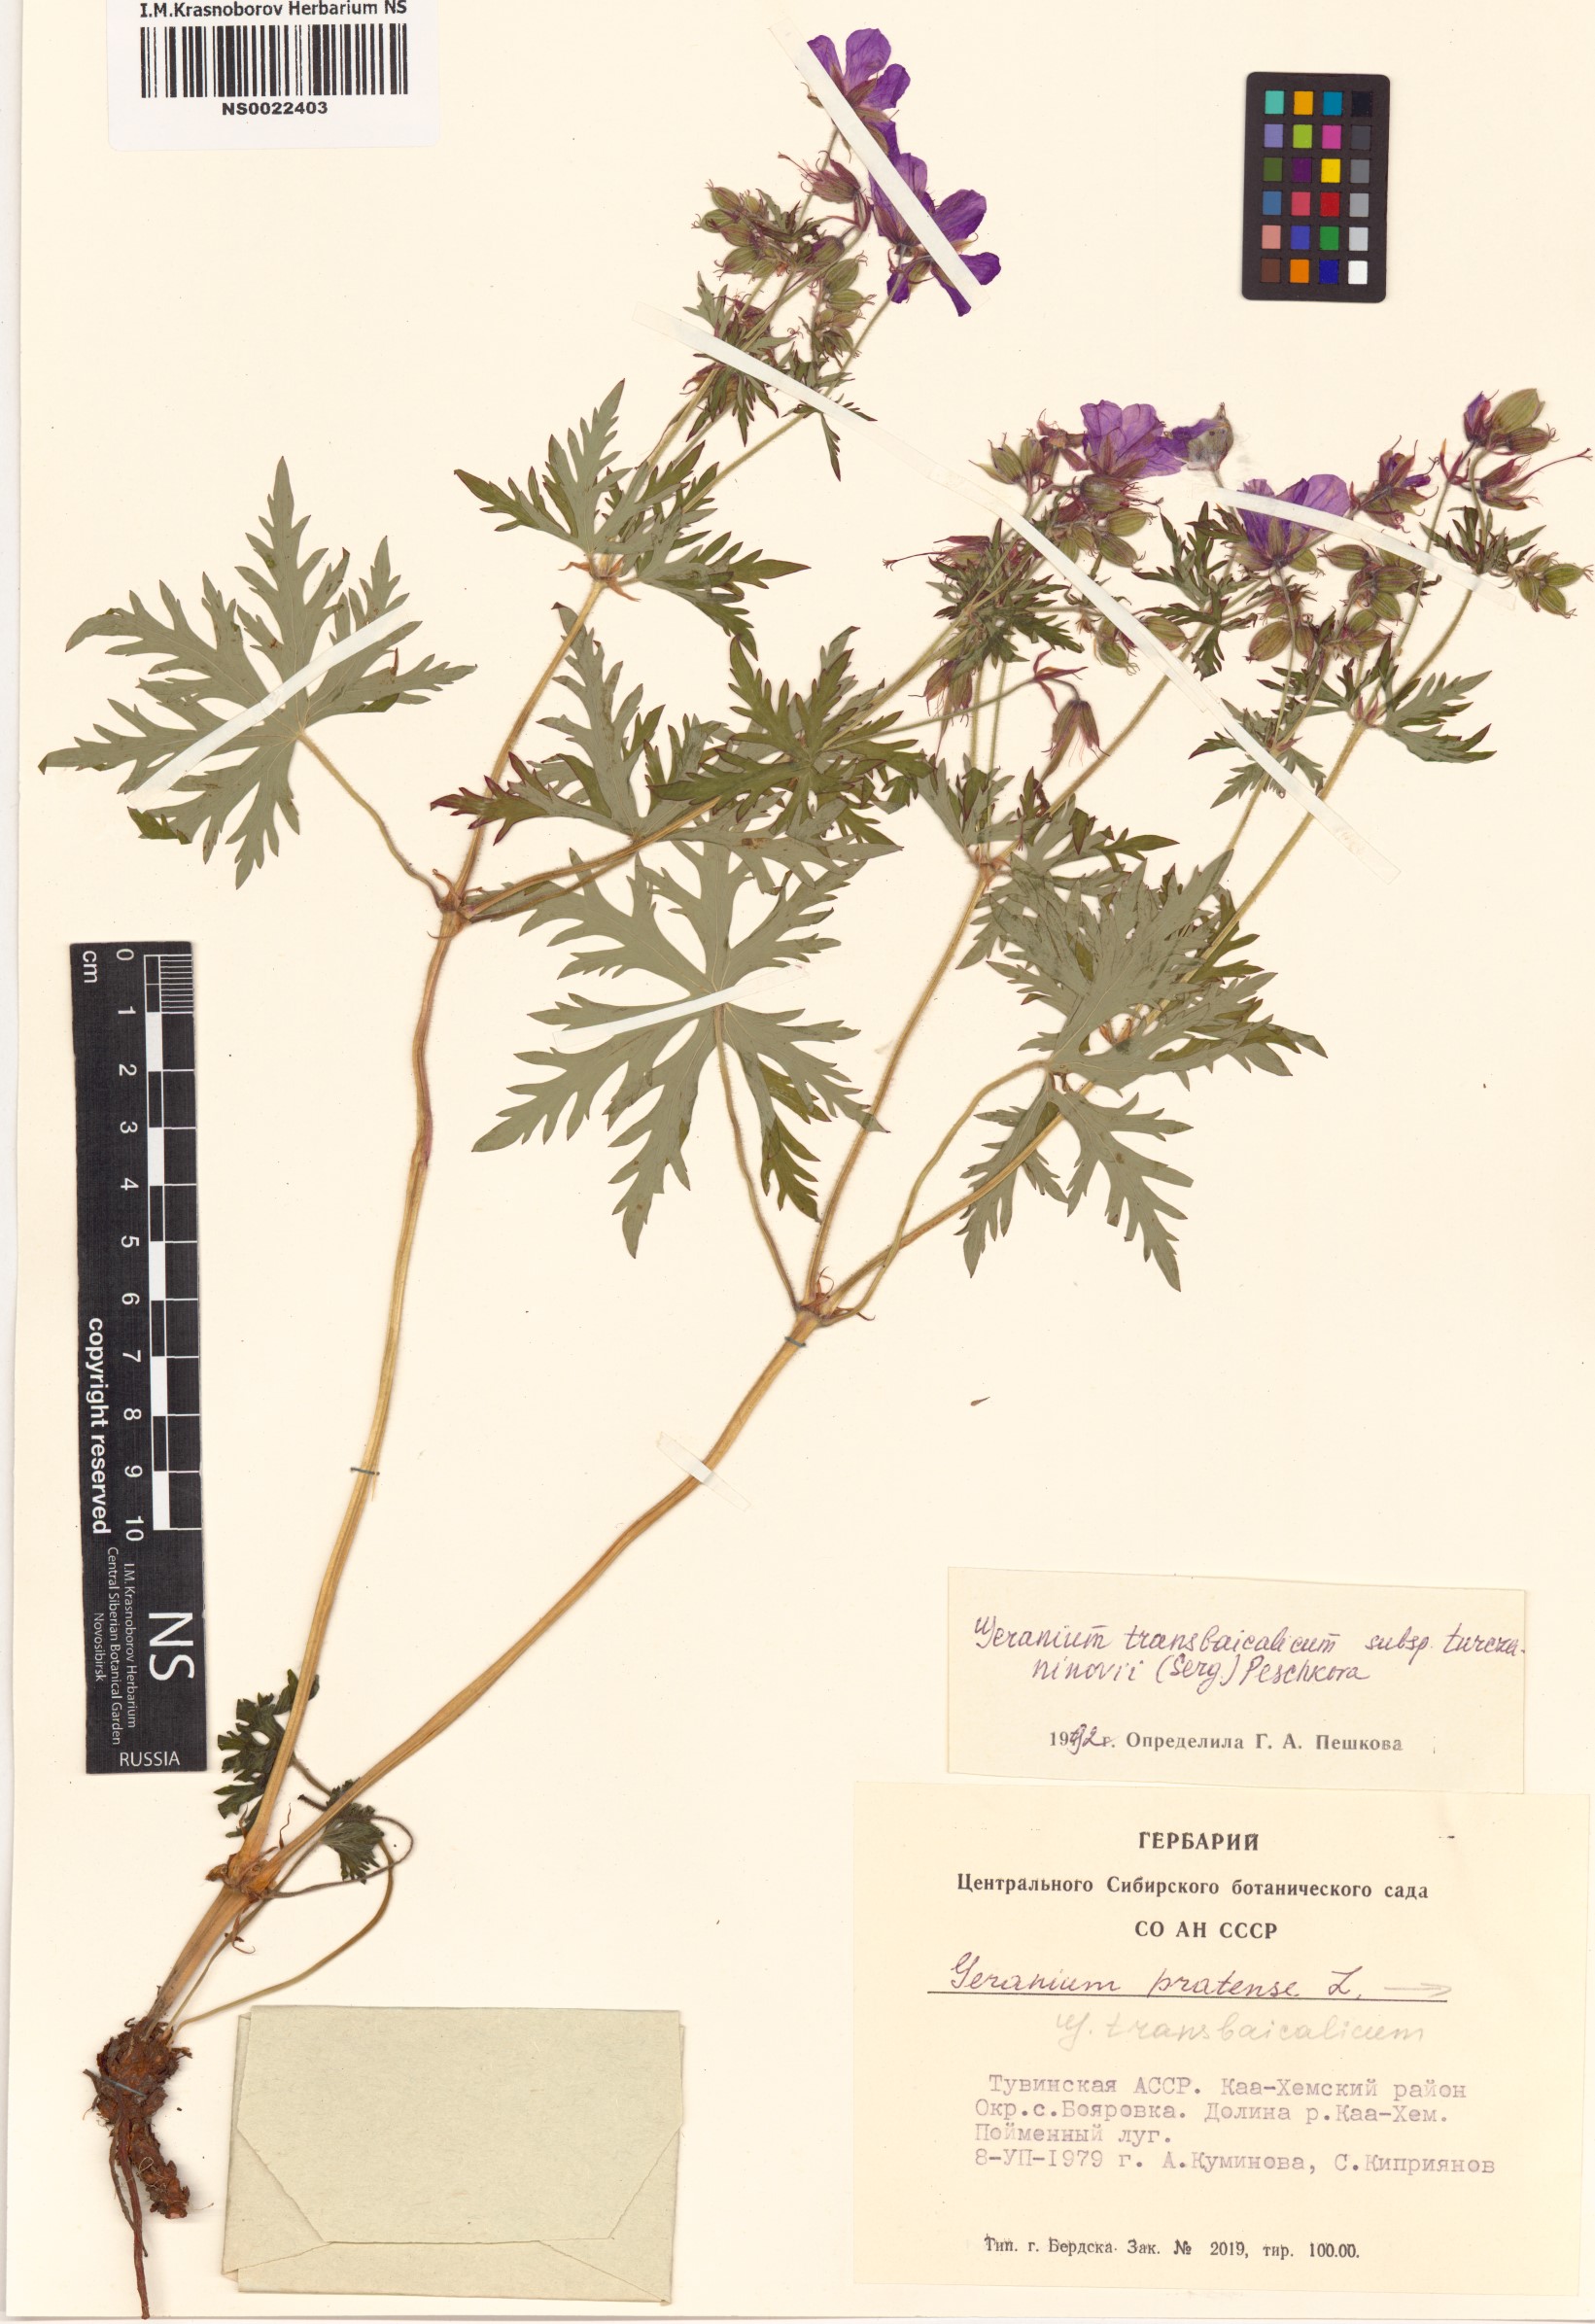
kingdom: Plantae
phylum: Tracheophyta
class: Magnoliopsida
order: Geraniales
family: Geraniaceae
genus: Geranium
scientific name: Geranium pratense
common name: Meadow crane's-bill
